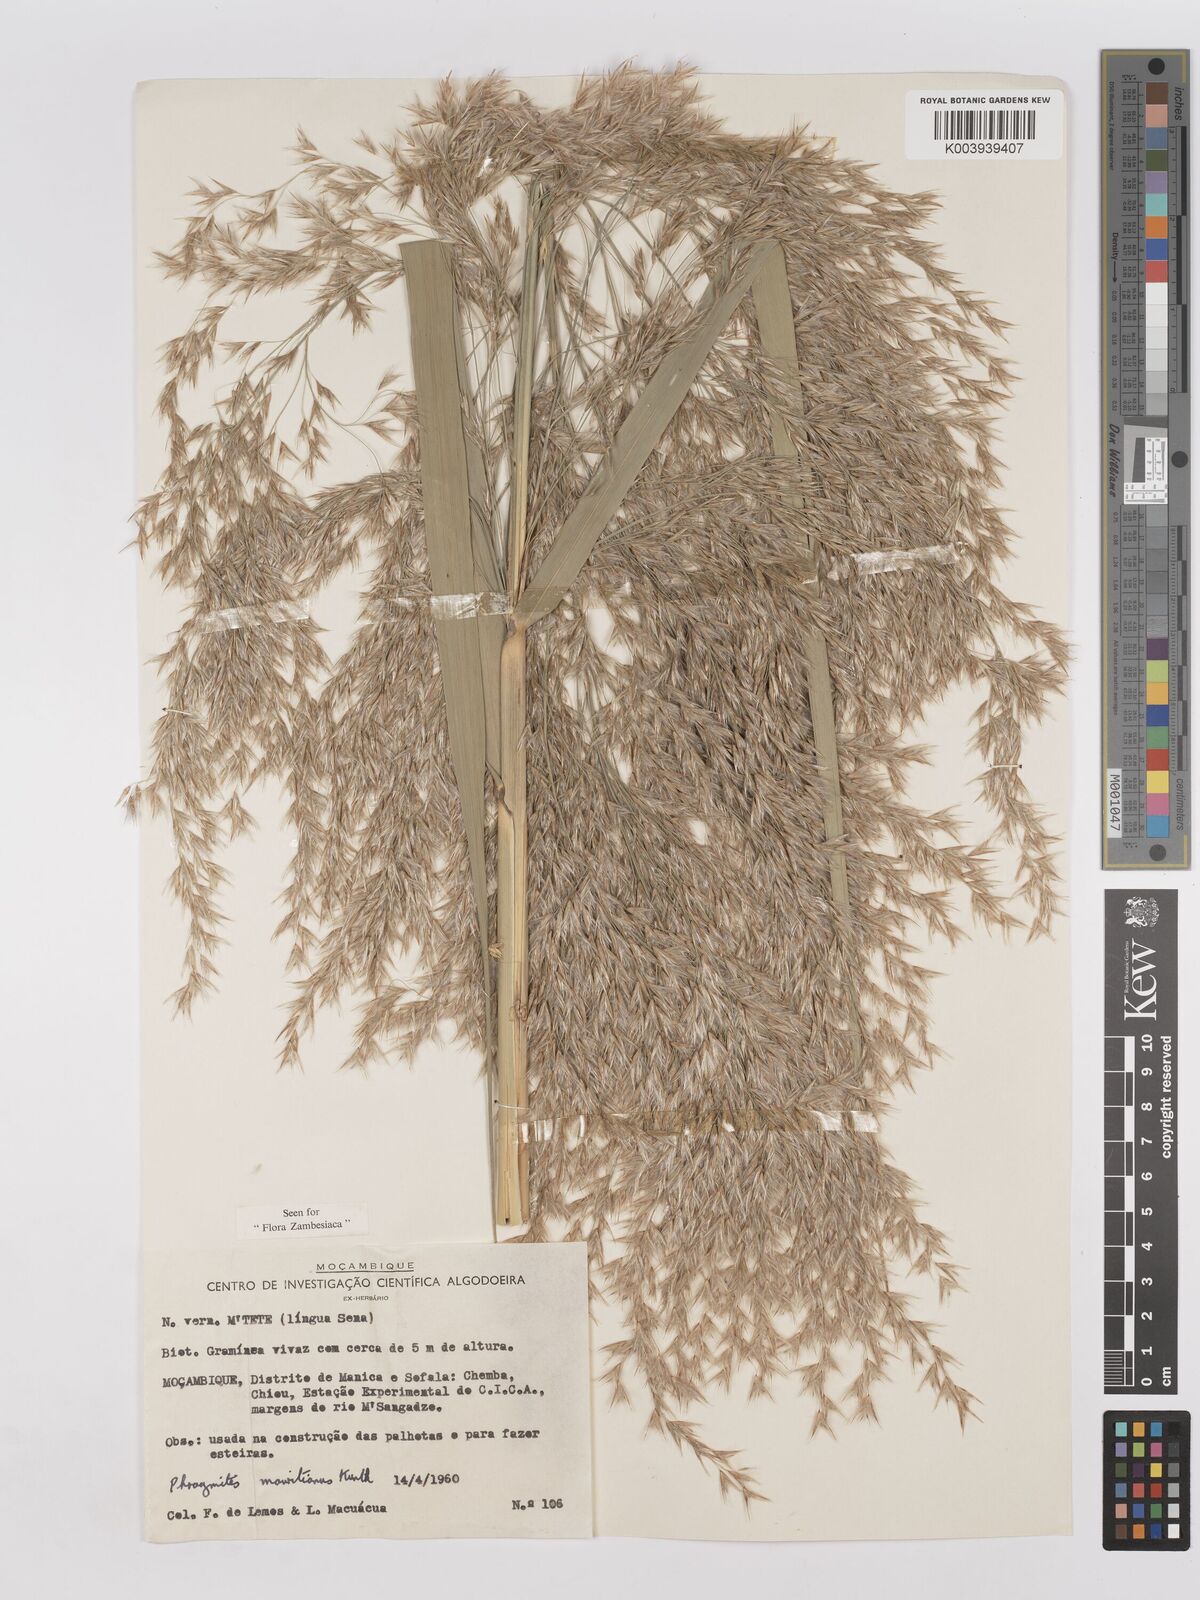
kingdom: Plantae
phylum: Tracheophyta
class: Liliopsida
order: Poales
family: Poaceae
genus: Phragmites
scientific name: Phragmites mauritianus
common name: Reed grass
